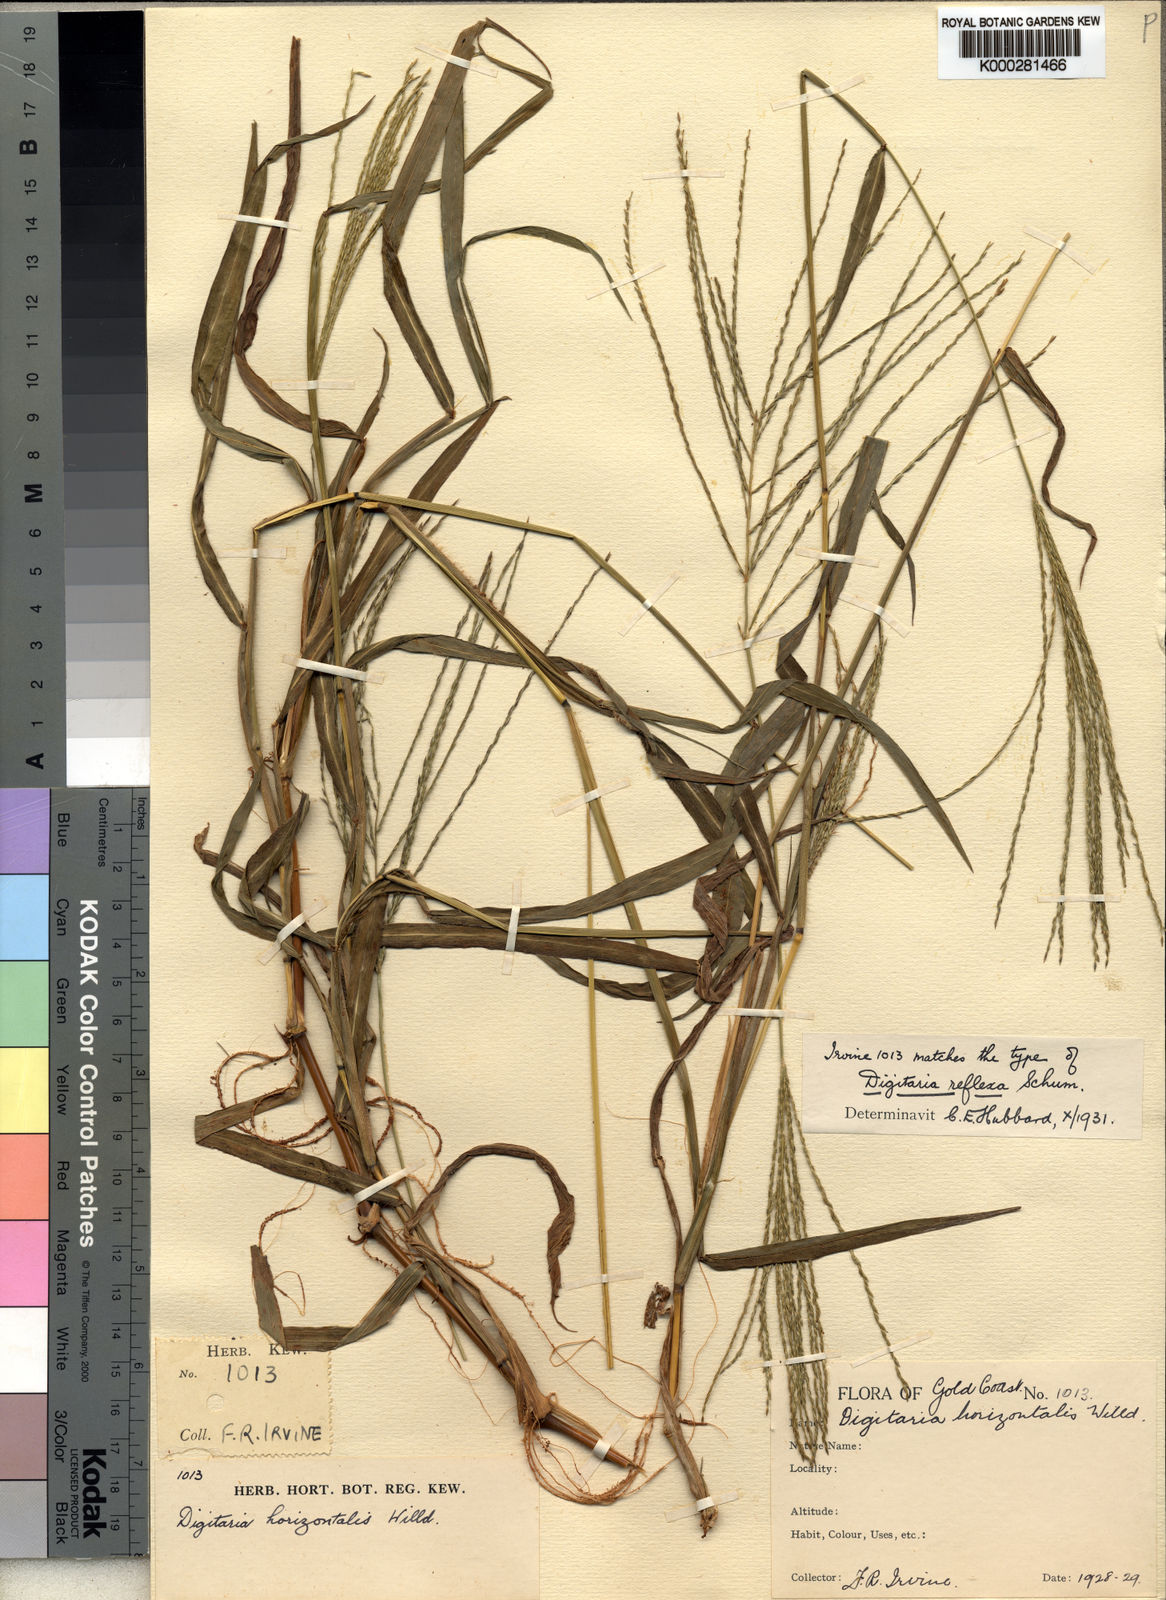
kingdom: Plantae
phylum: Tracheophyta
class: Liliopsida
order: Poales
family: Poaceae
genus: Digitaria
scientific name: Digitaria horizontalis
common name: Jamaican crabgrass
